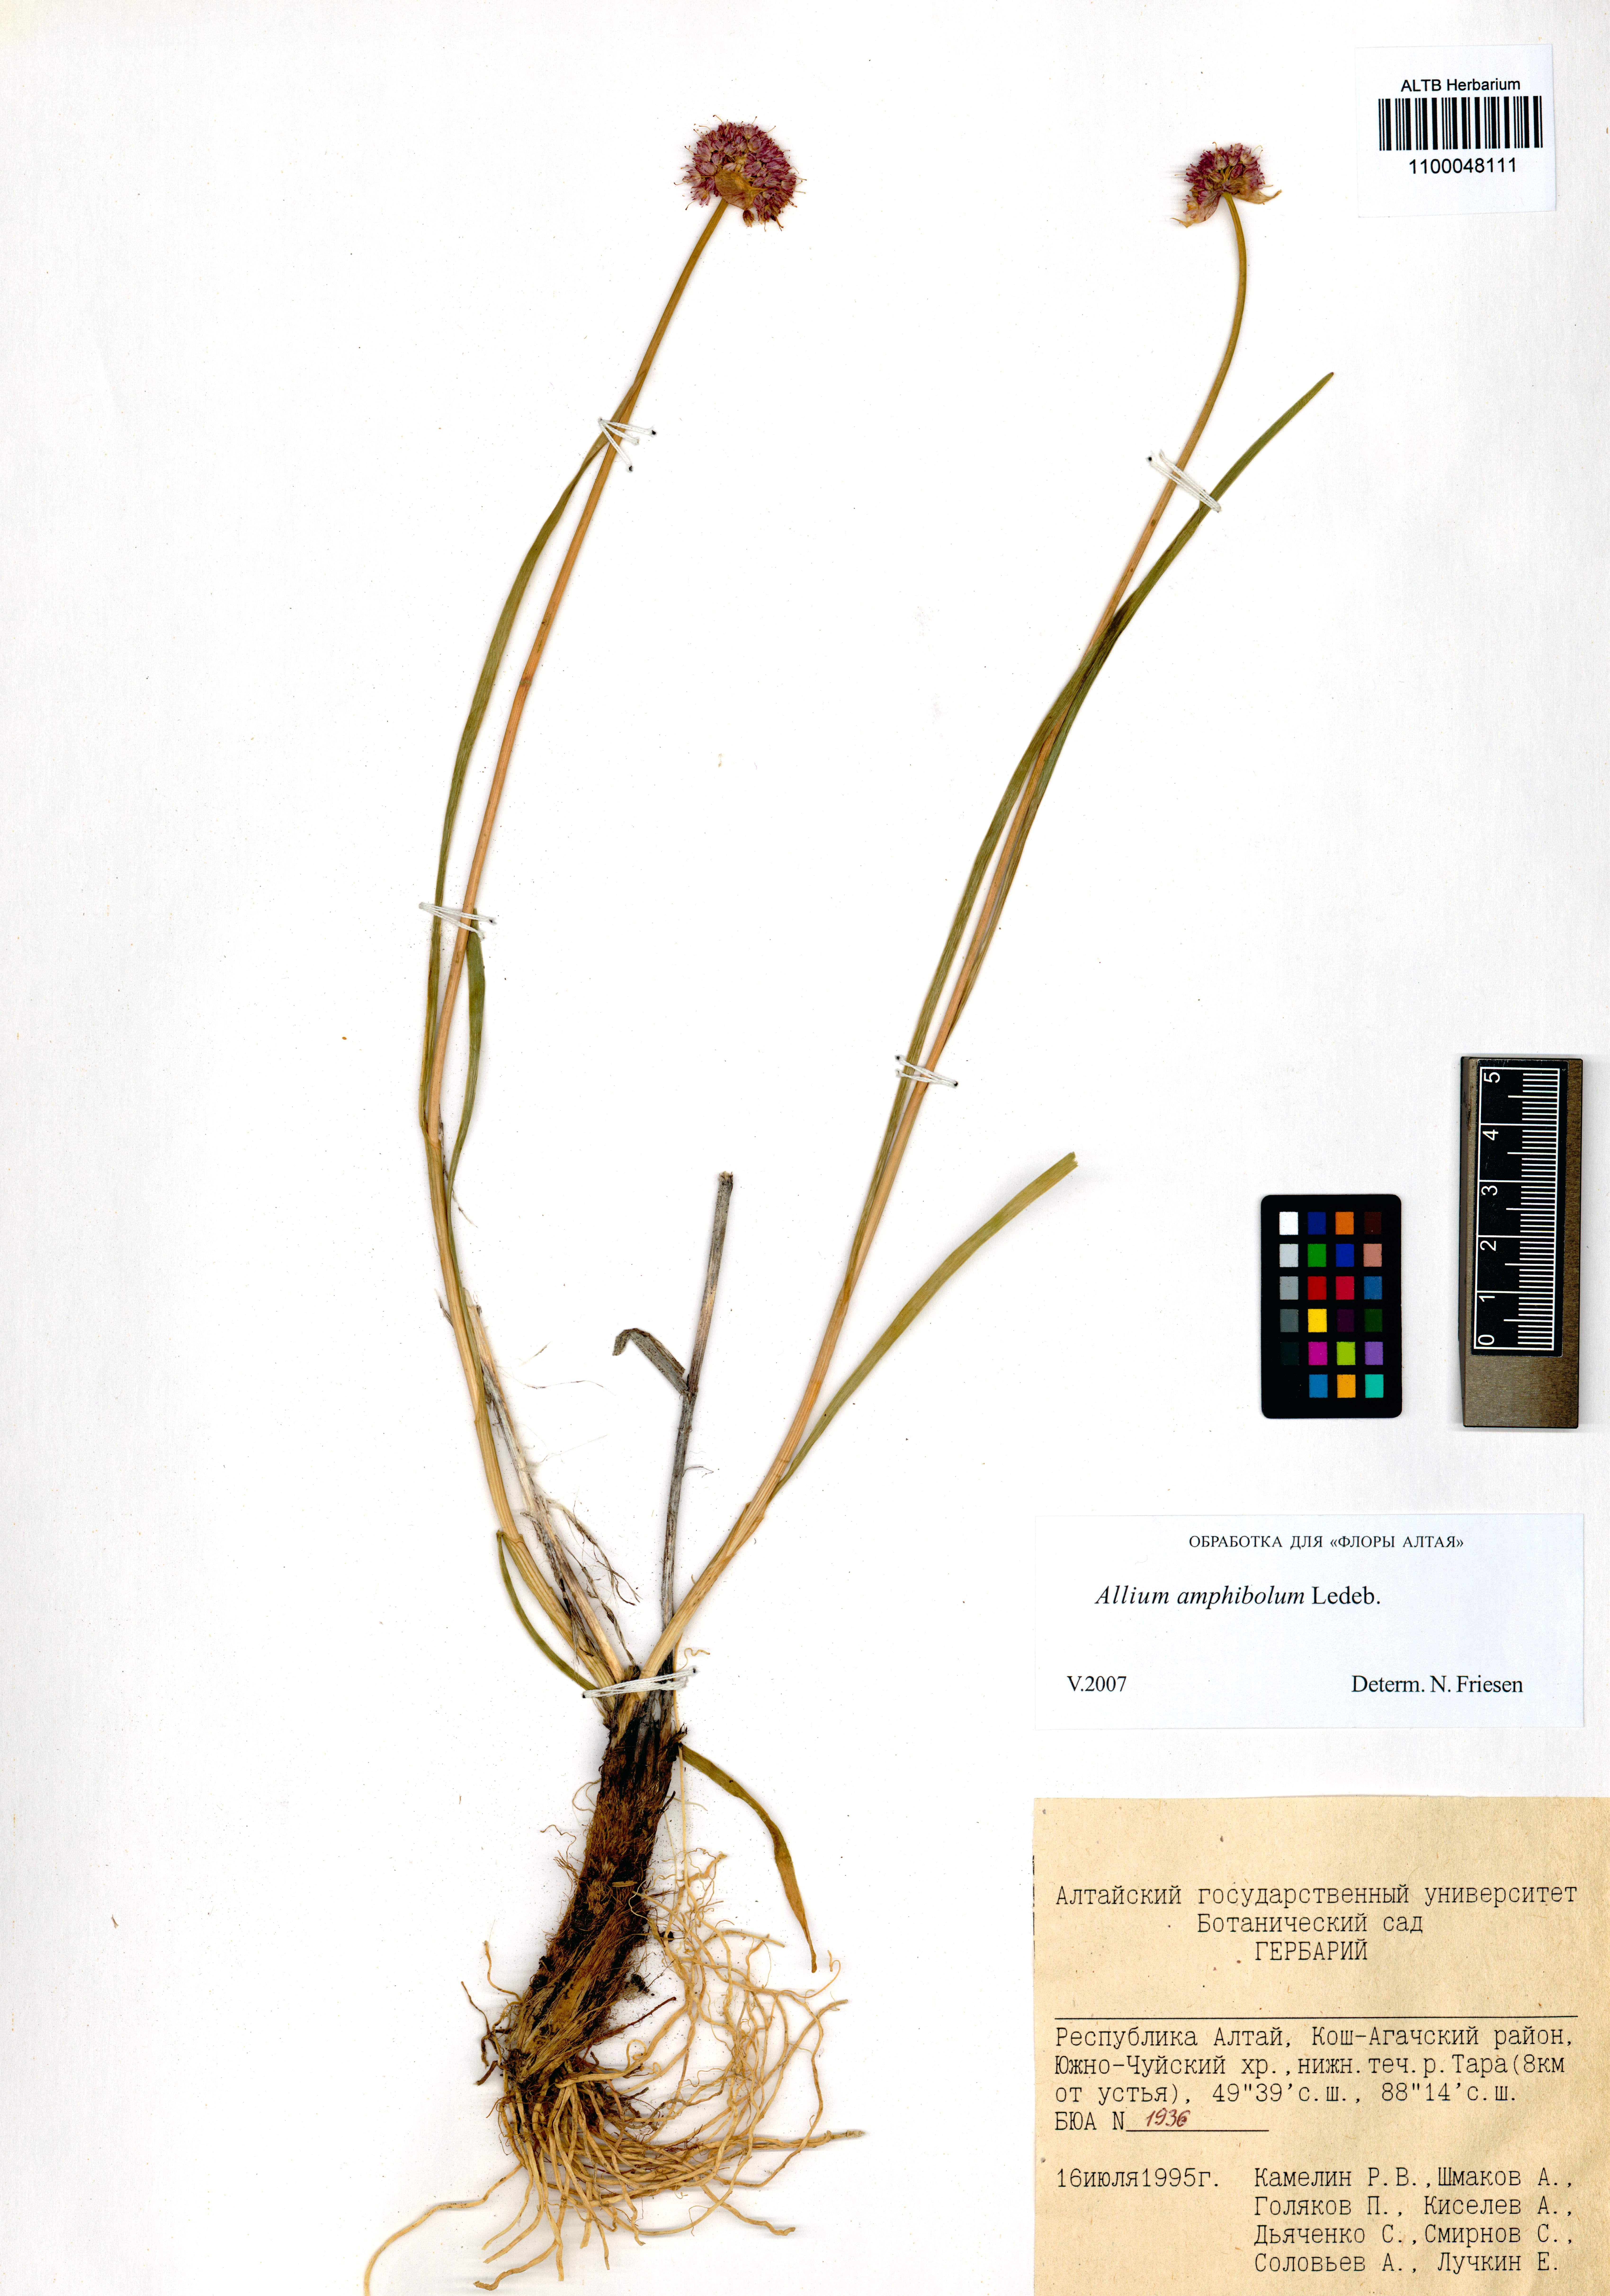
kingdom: Plantae
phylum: Tracheophyta
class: Liliopsida
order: Asparagales
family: Amaryllidaceae
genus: Allium
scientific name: Allium amphibolum
